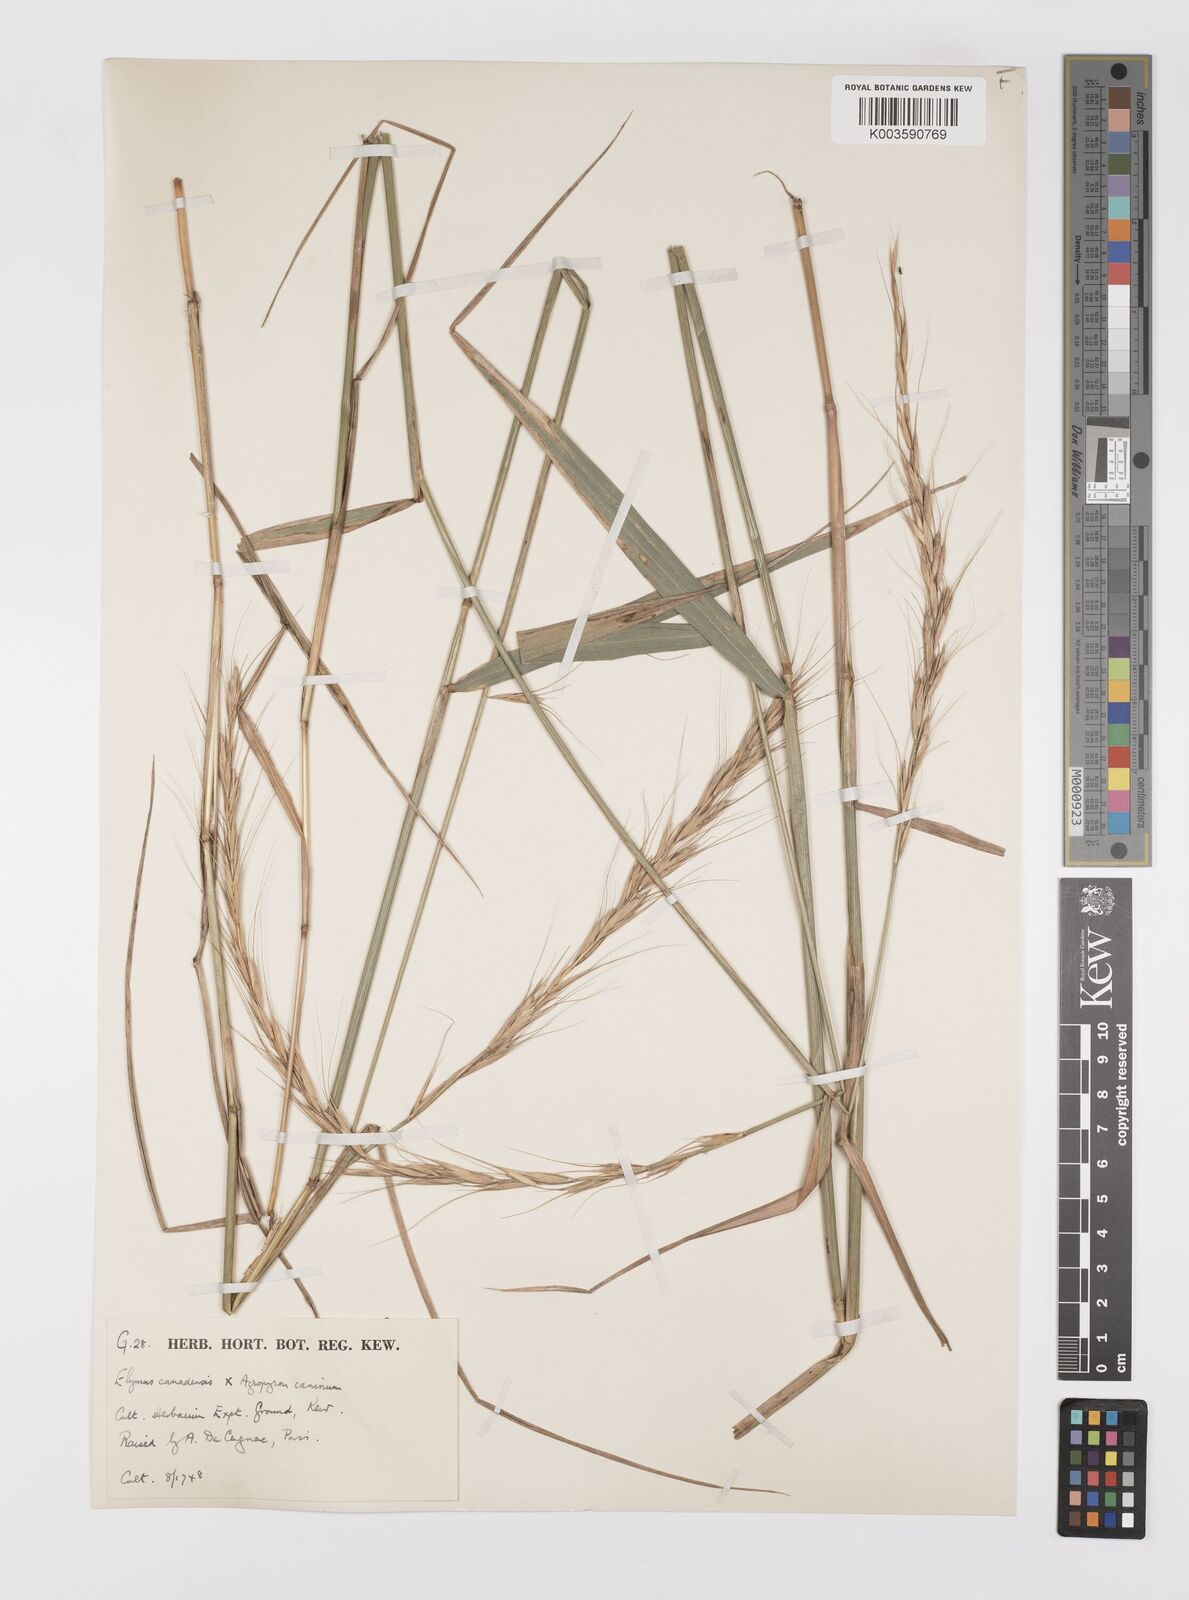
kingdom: Plantae
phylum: Tracheophyta
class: Liliopsida
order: Poales
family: Poaceae
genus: Elymus
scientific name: Elymus canadensis
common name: Canada wild rye
